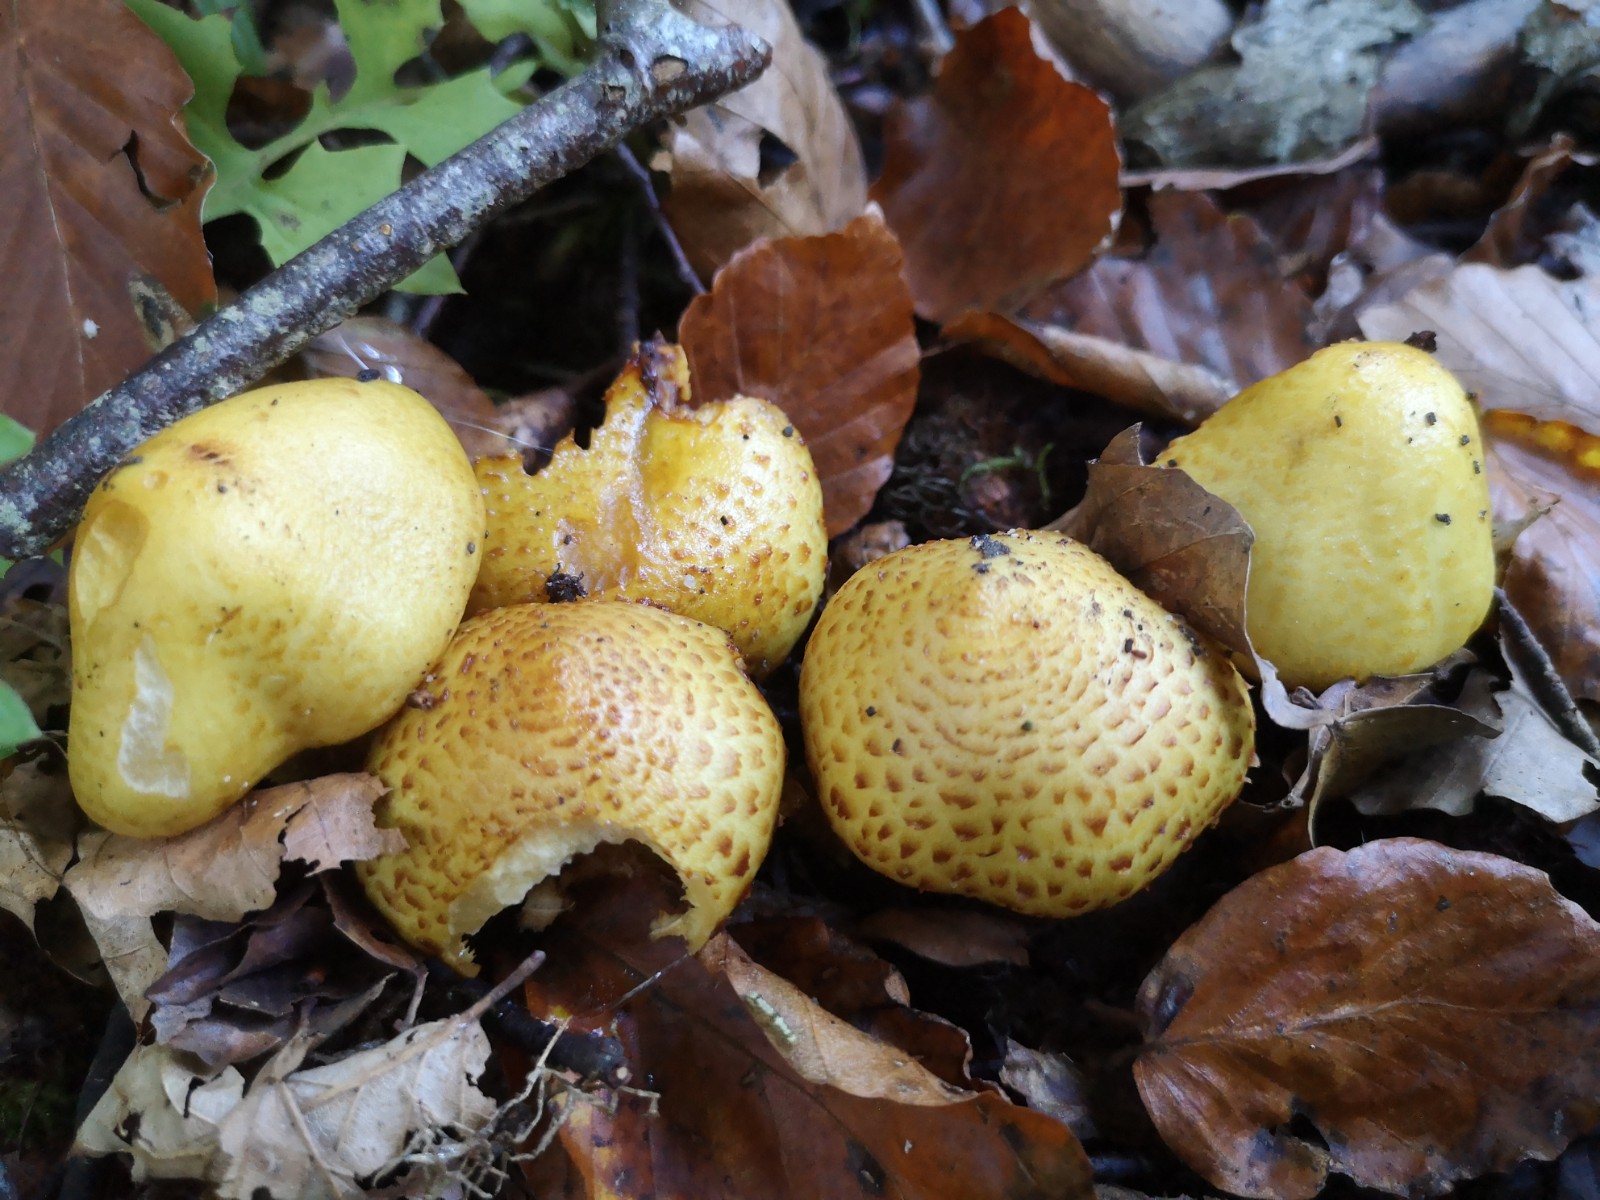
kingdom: Fungi
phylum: Basidiomycota
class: Agaricomycetes
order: Agaricales
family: Strophariaceae
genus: Pholiota
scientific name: Pholiota jahnii
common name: slimet skælhat
